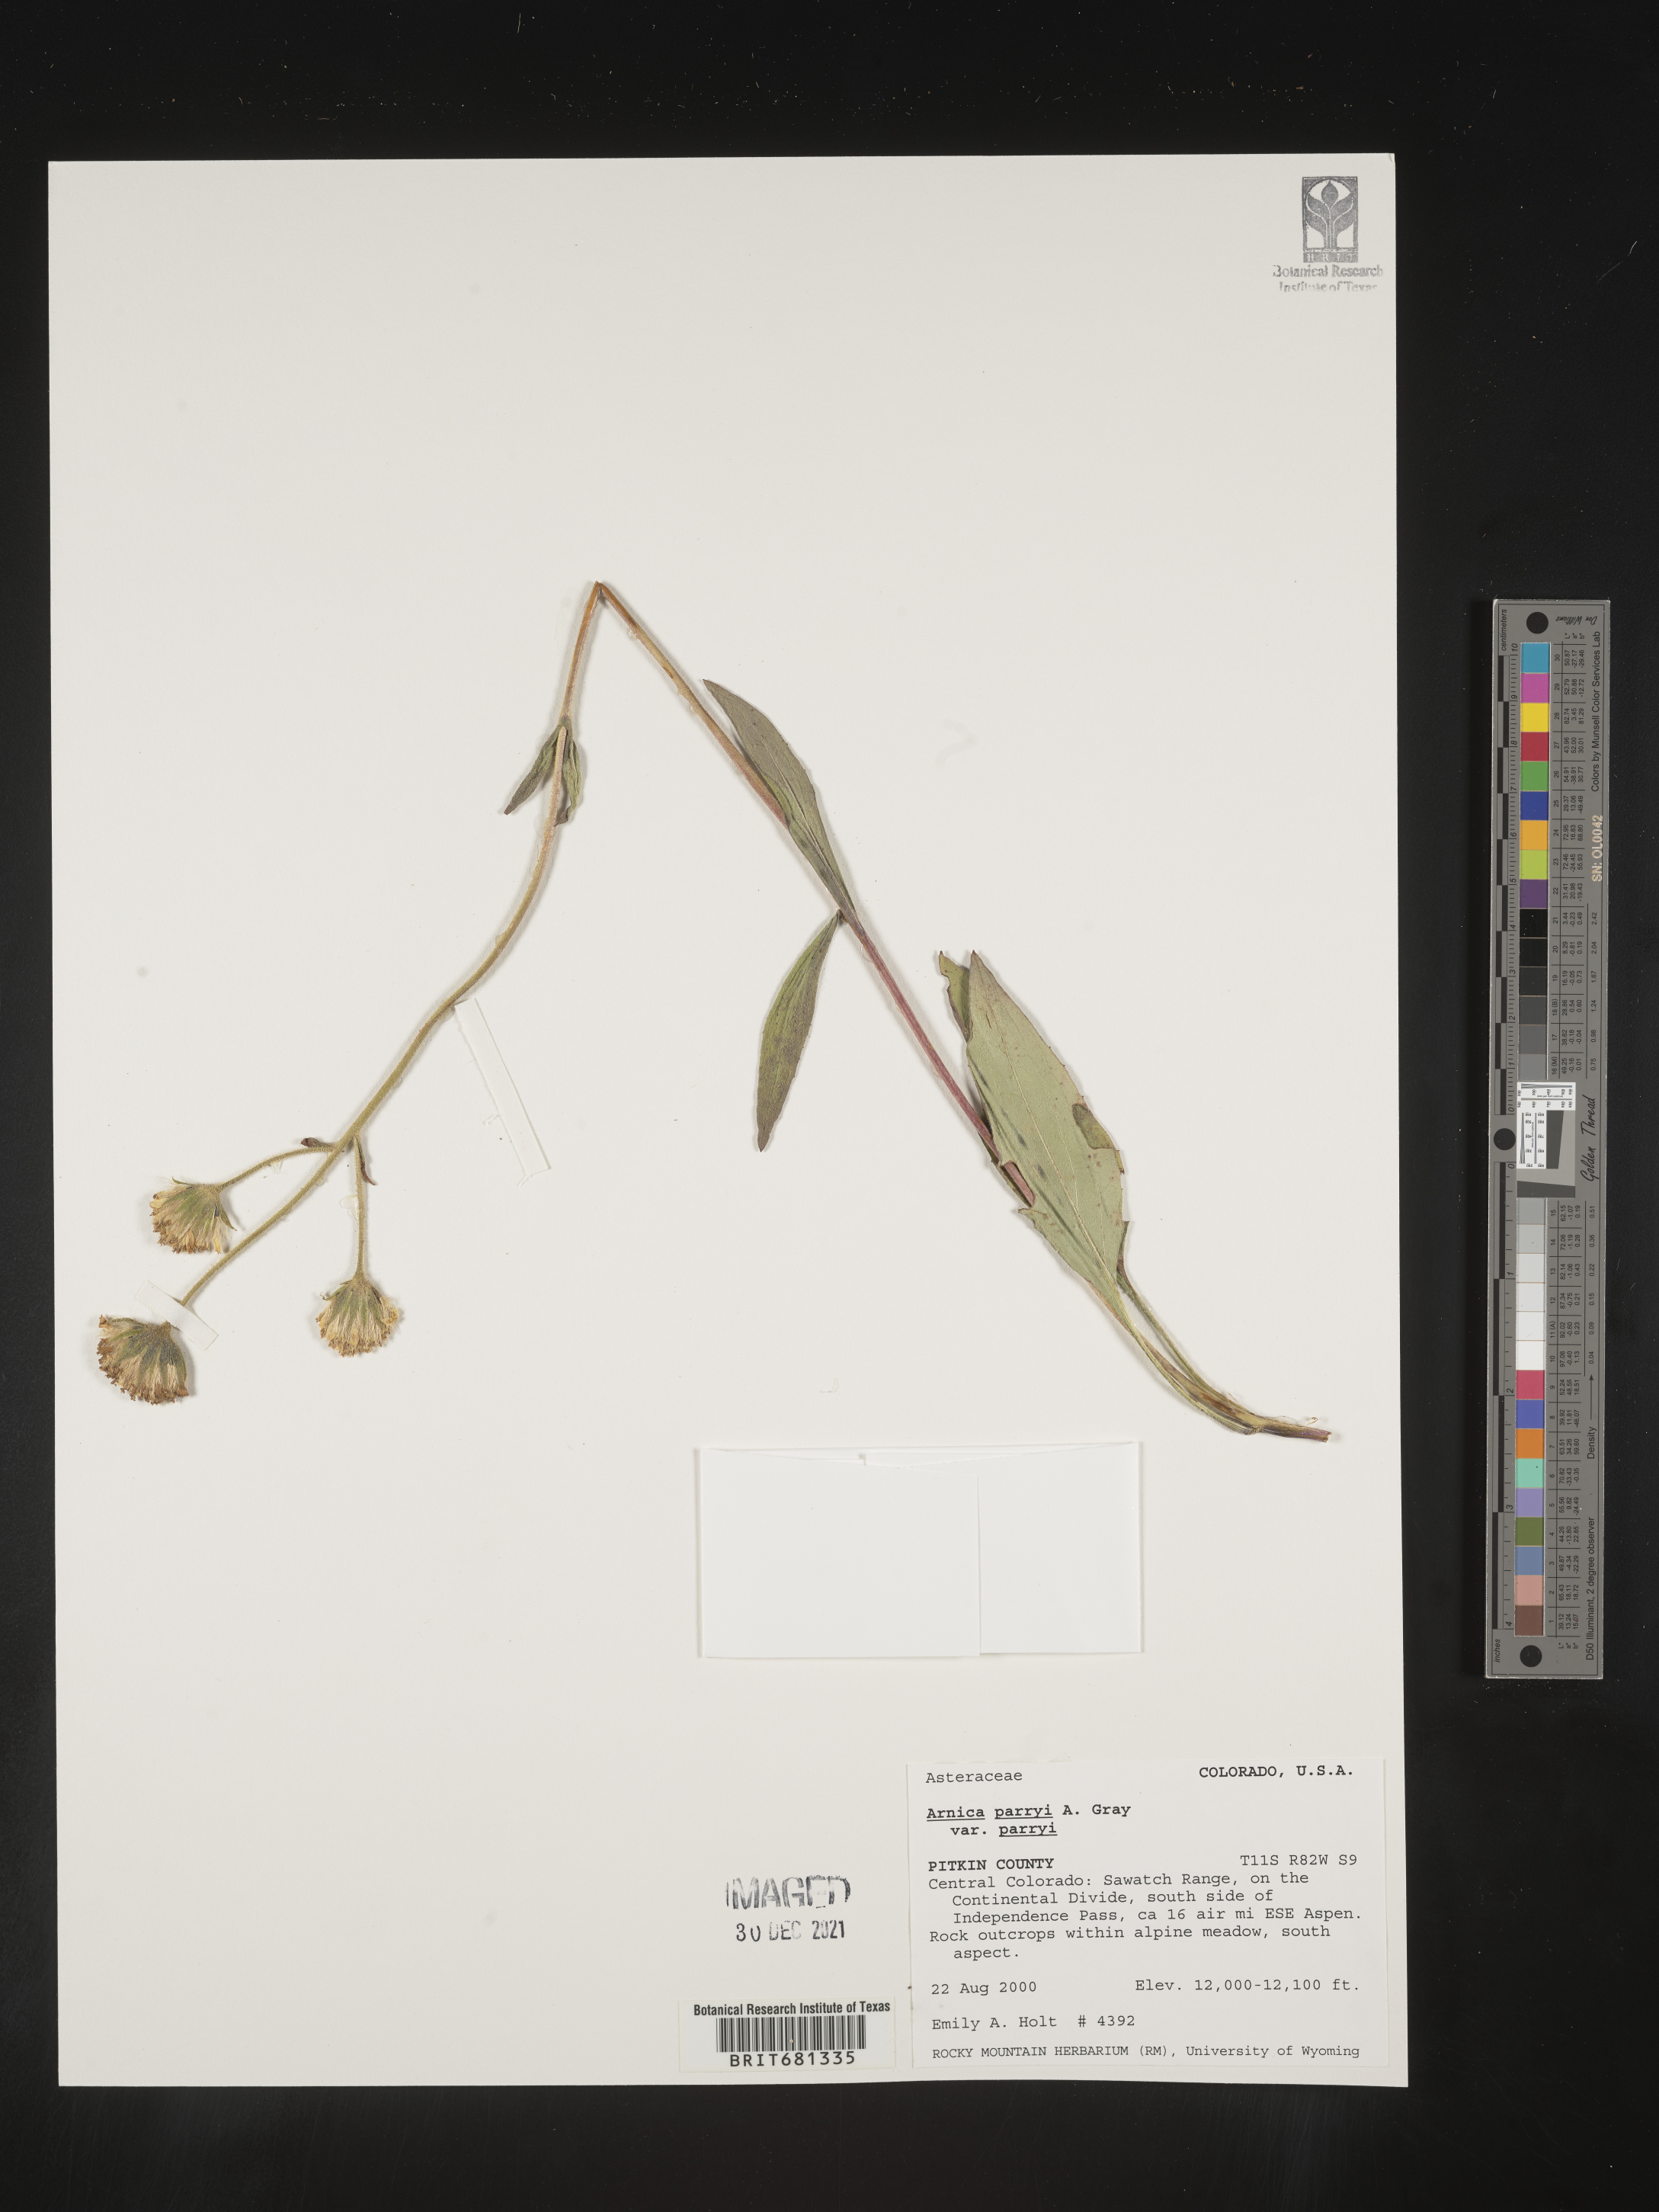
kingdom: Plantae
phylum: Tracheophyta
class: Magnoliopsida
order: Asterales
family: Asteraceae
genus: Arnica
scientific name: Arnica parryi
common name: Parry's arnica
